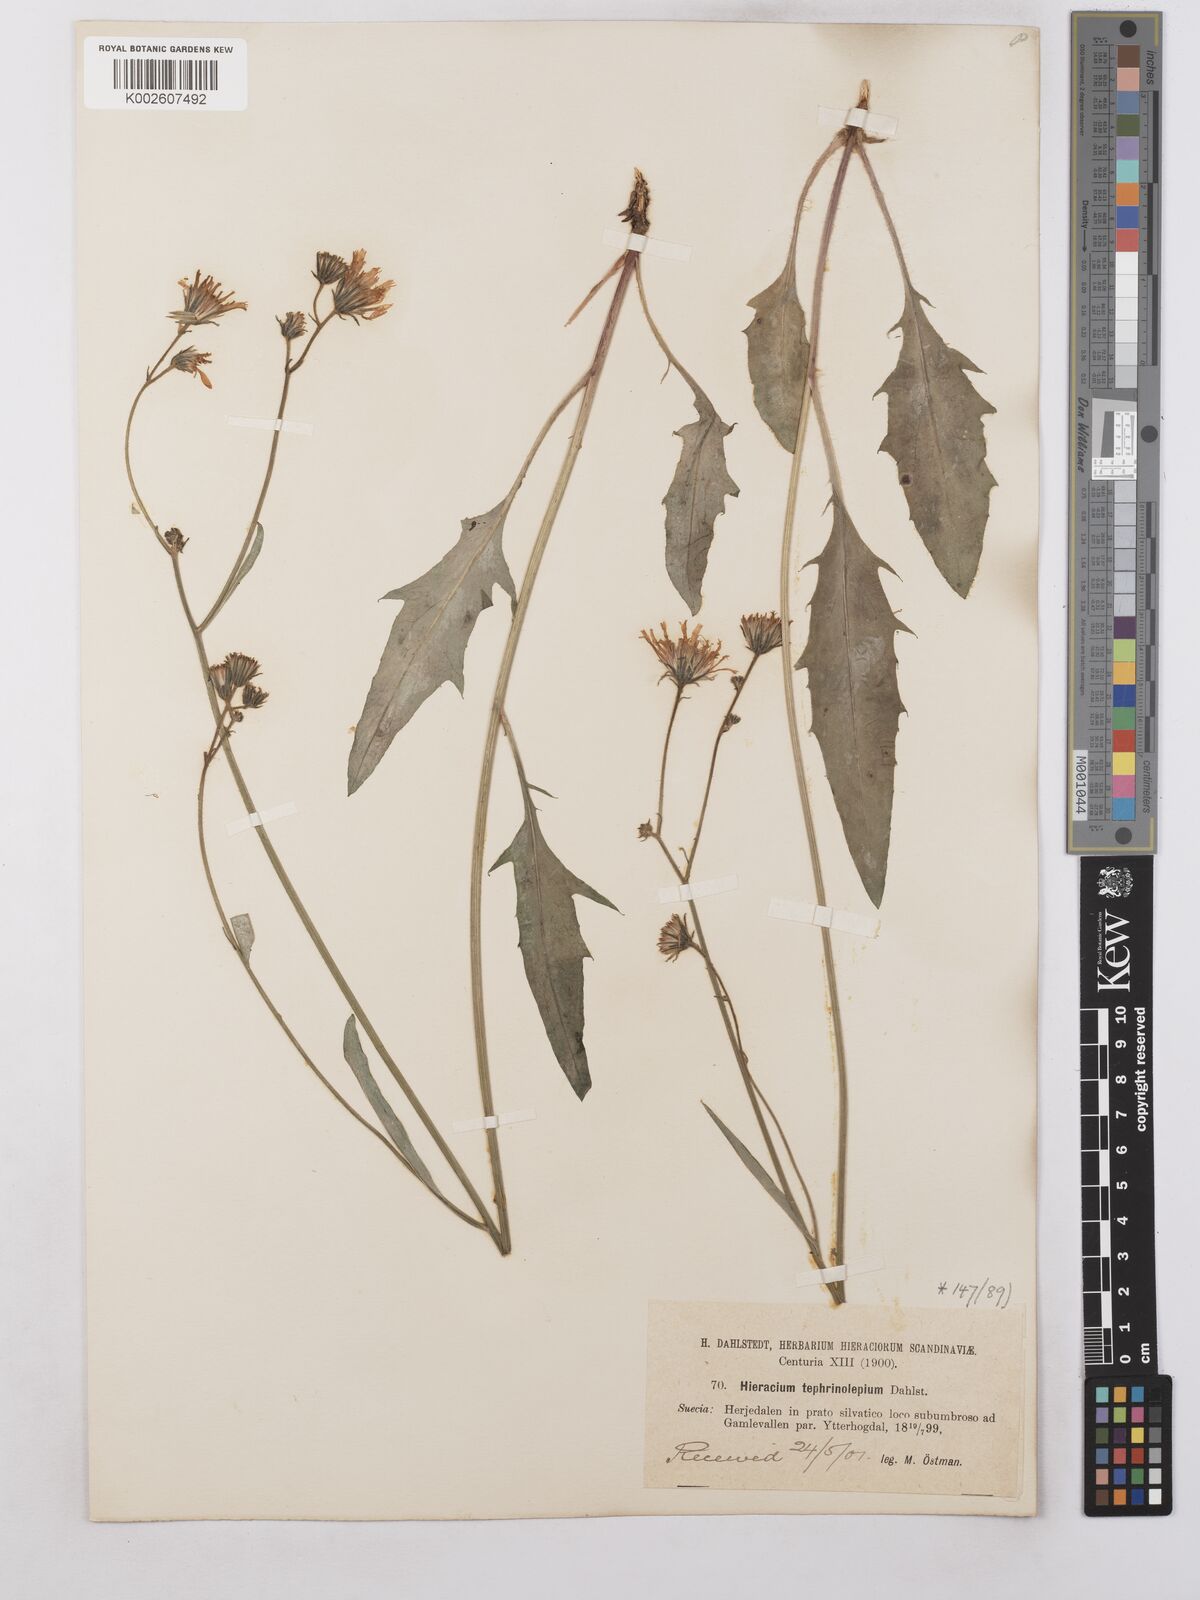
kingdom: Plantae
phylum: Tracheophyta
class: Magnoliopsida
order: Asterales
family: Asteraceae
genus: Hieracium
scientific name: Hieracium
